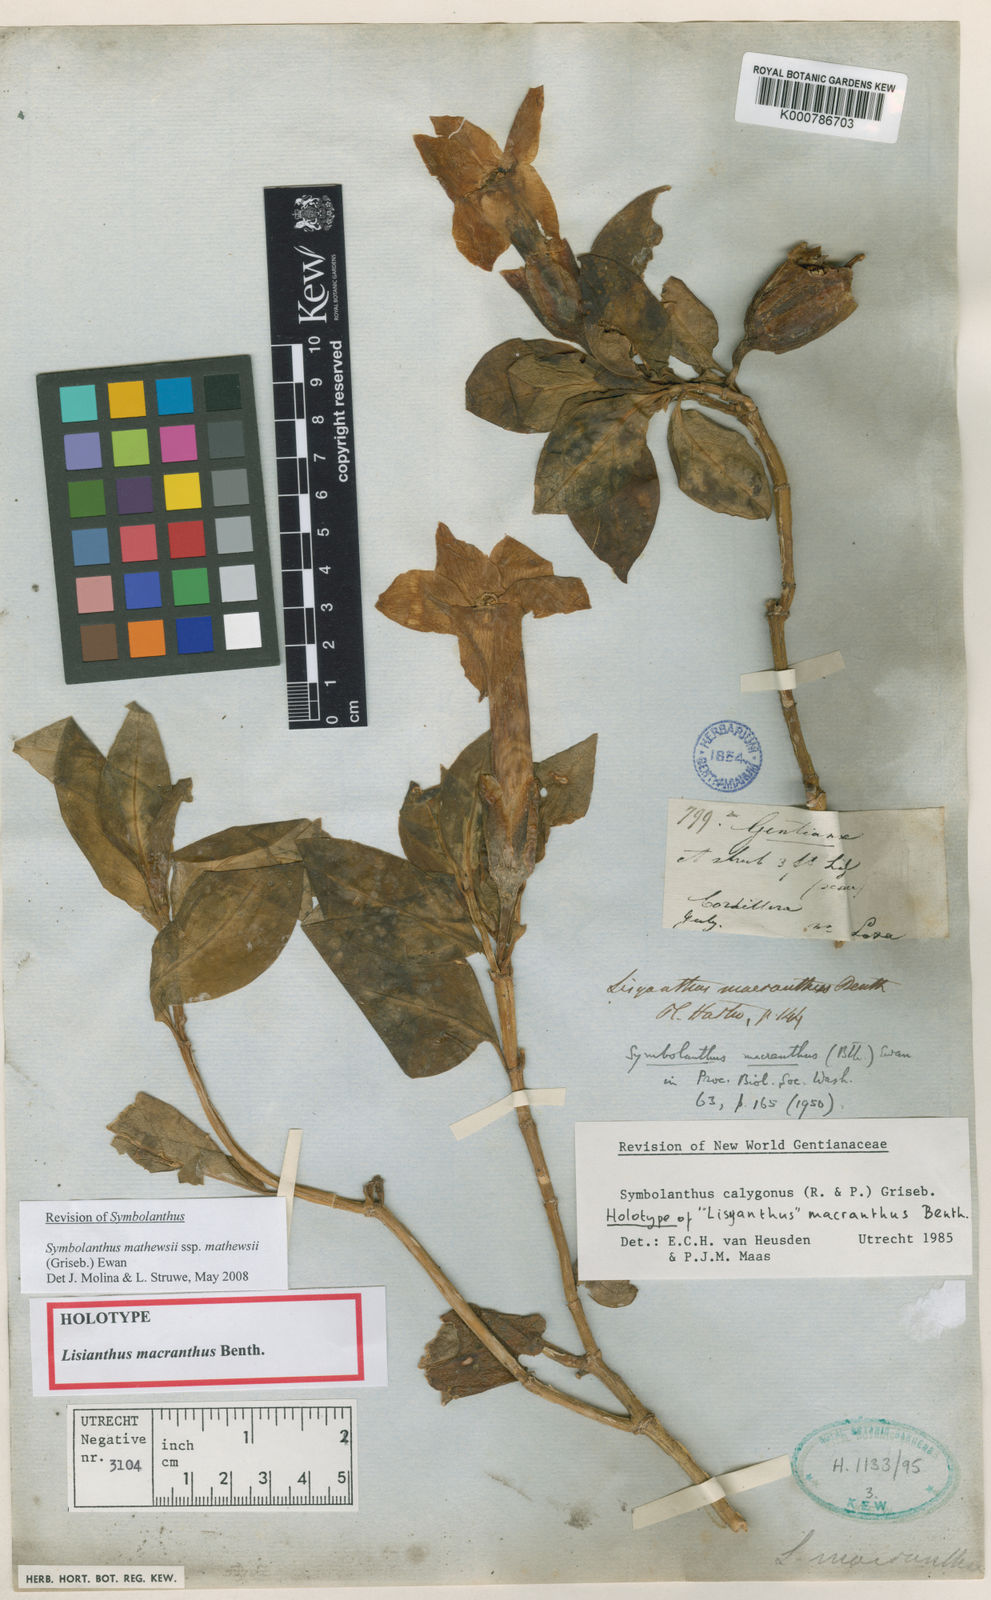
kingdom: Plantae
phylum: Tracheophyta
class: Magnoliopsida
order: Gentianales
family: Gentianaceae
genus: Symbolanthus
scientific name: Symbolanthus calygonus
